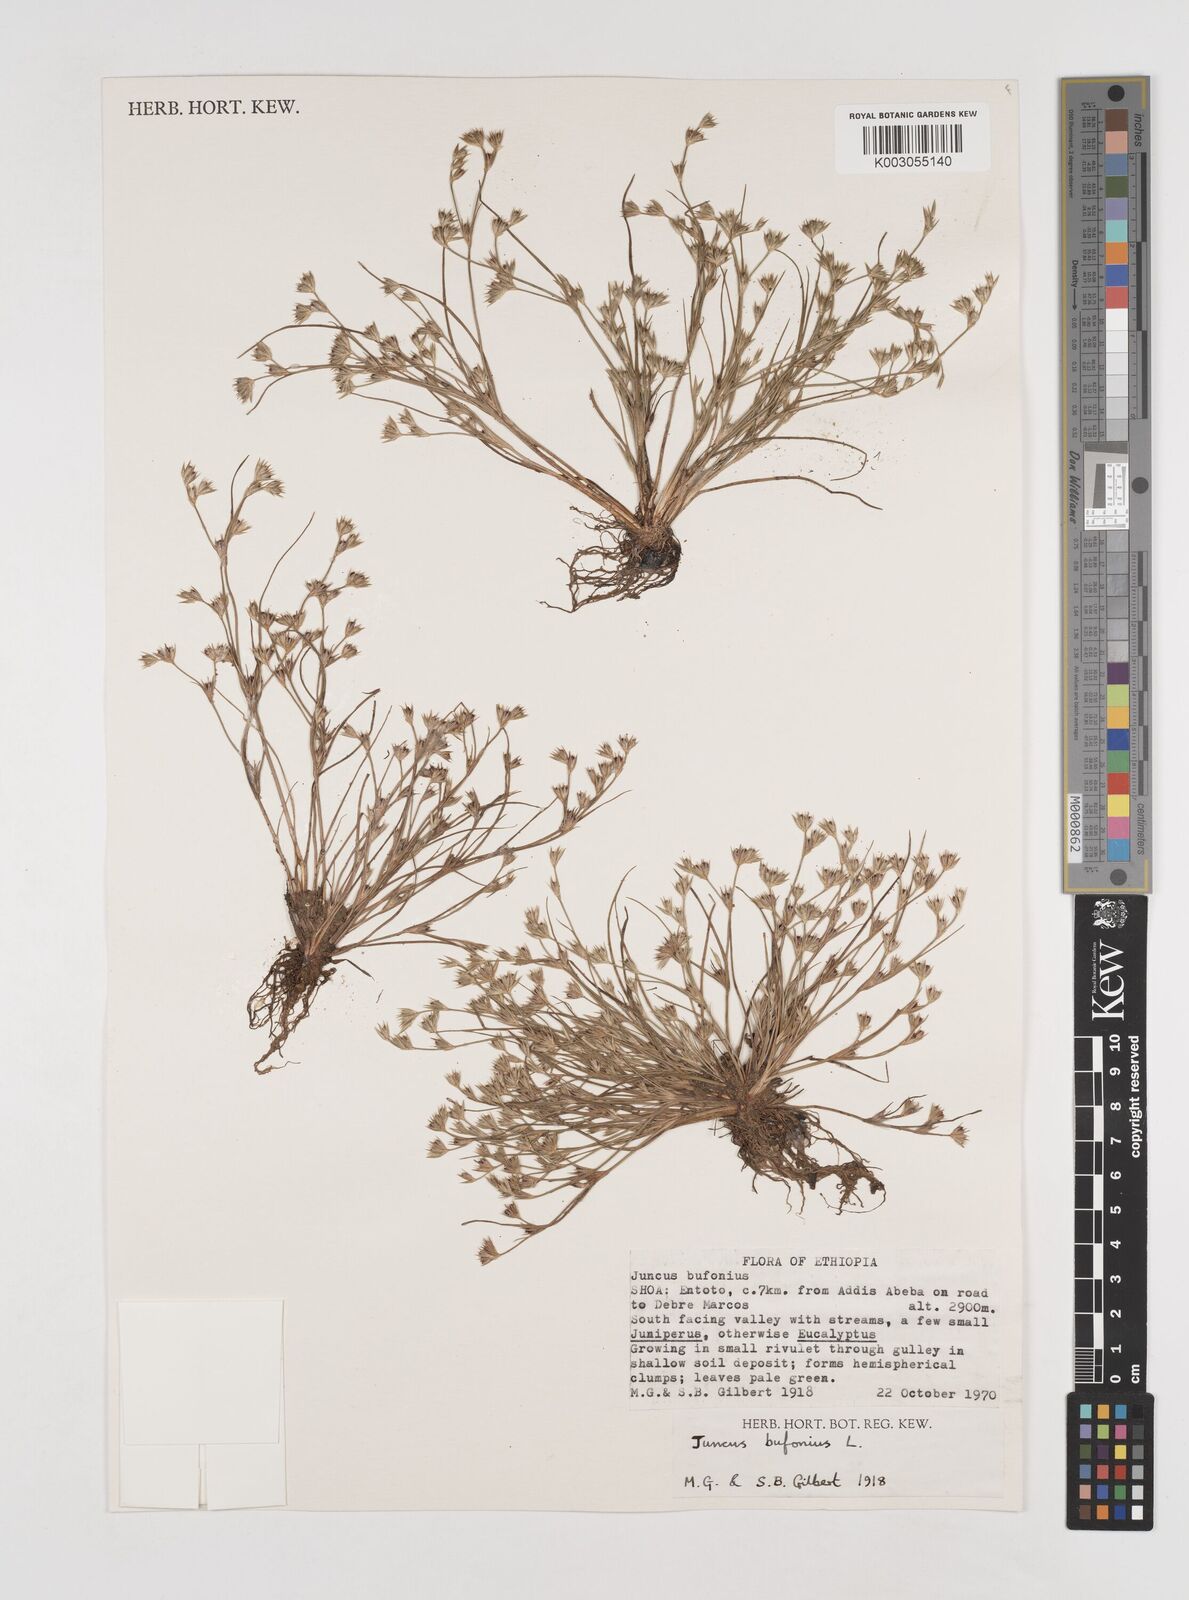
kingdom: Plantae
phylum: Tracheophyta
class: Liliopsida
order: Poales
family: Juncaceae
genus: Juncus
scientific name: Juncus bufonius
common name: Toad rush
